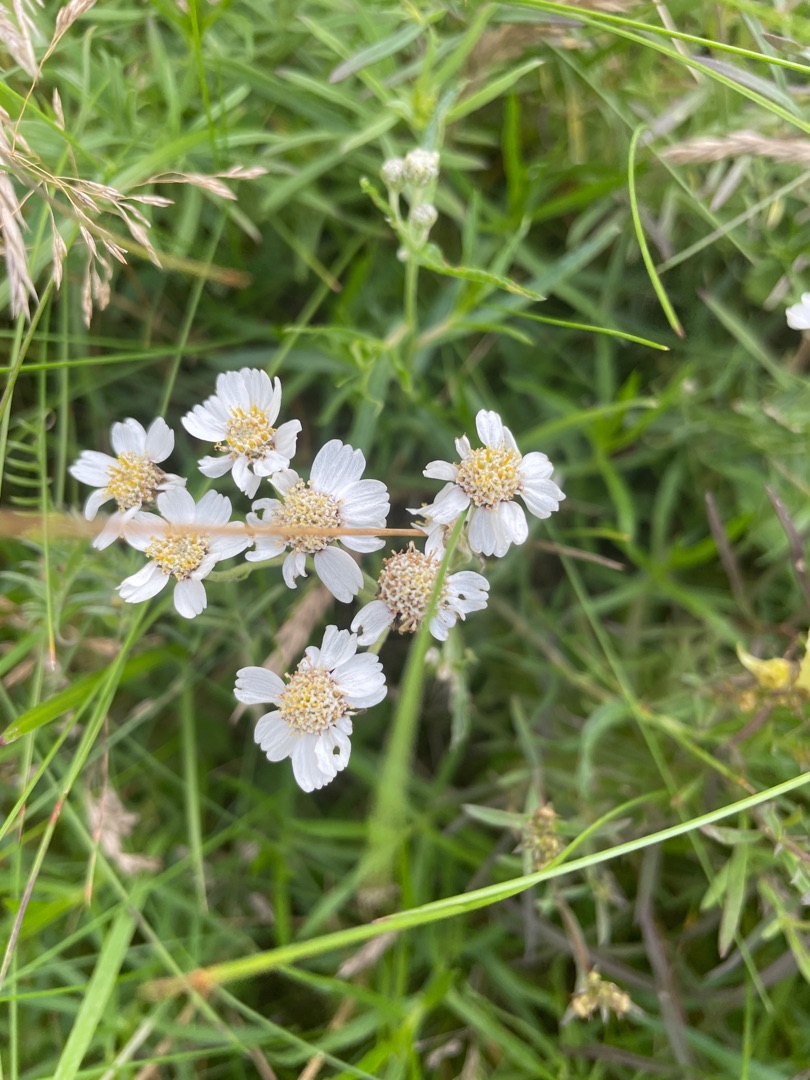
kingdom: Plantae
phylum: Tracheophyta
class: Magnoliopsida
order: Asterales
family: Asteraceae
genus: Achillea
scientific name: Achillea ptarmica
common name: Nyse-røllike
